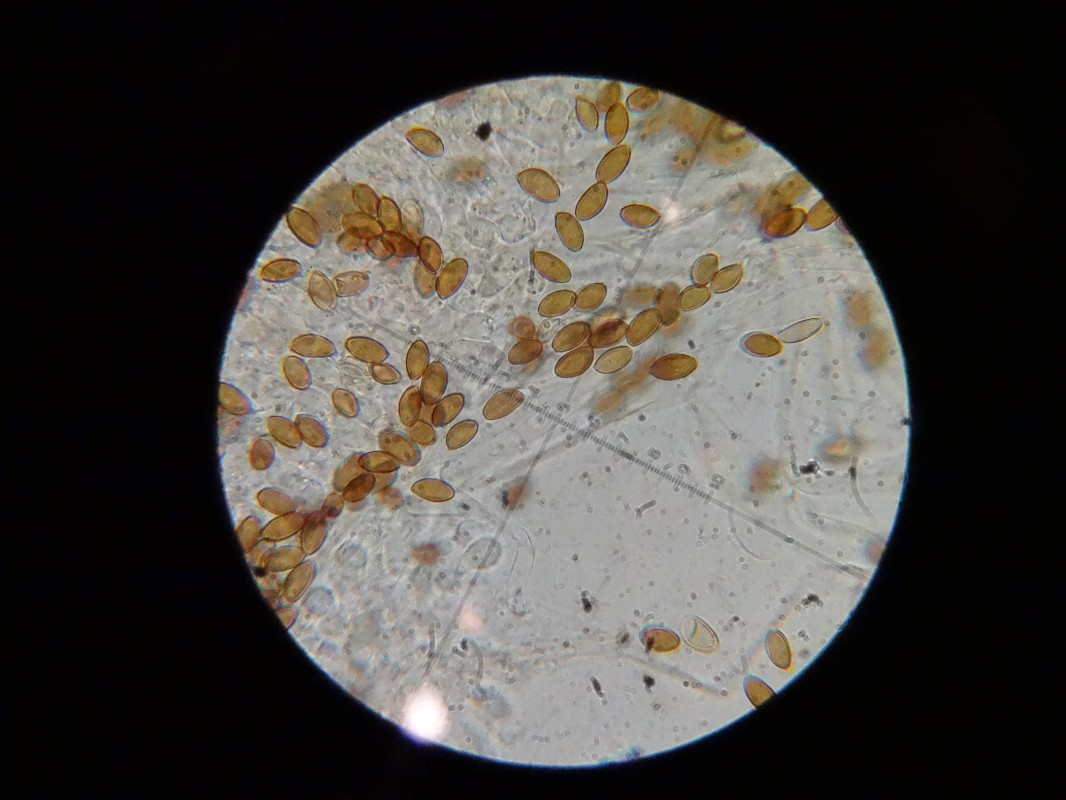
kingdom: Fungi
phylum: Basidiomycota
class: Agaricomycetes
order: Agaricales
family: Hymenogastraceae
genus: Psilocybe
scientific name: Psilocybe semilanceata
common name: spids nøgenhat
